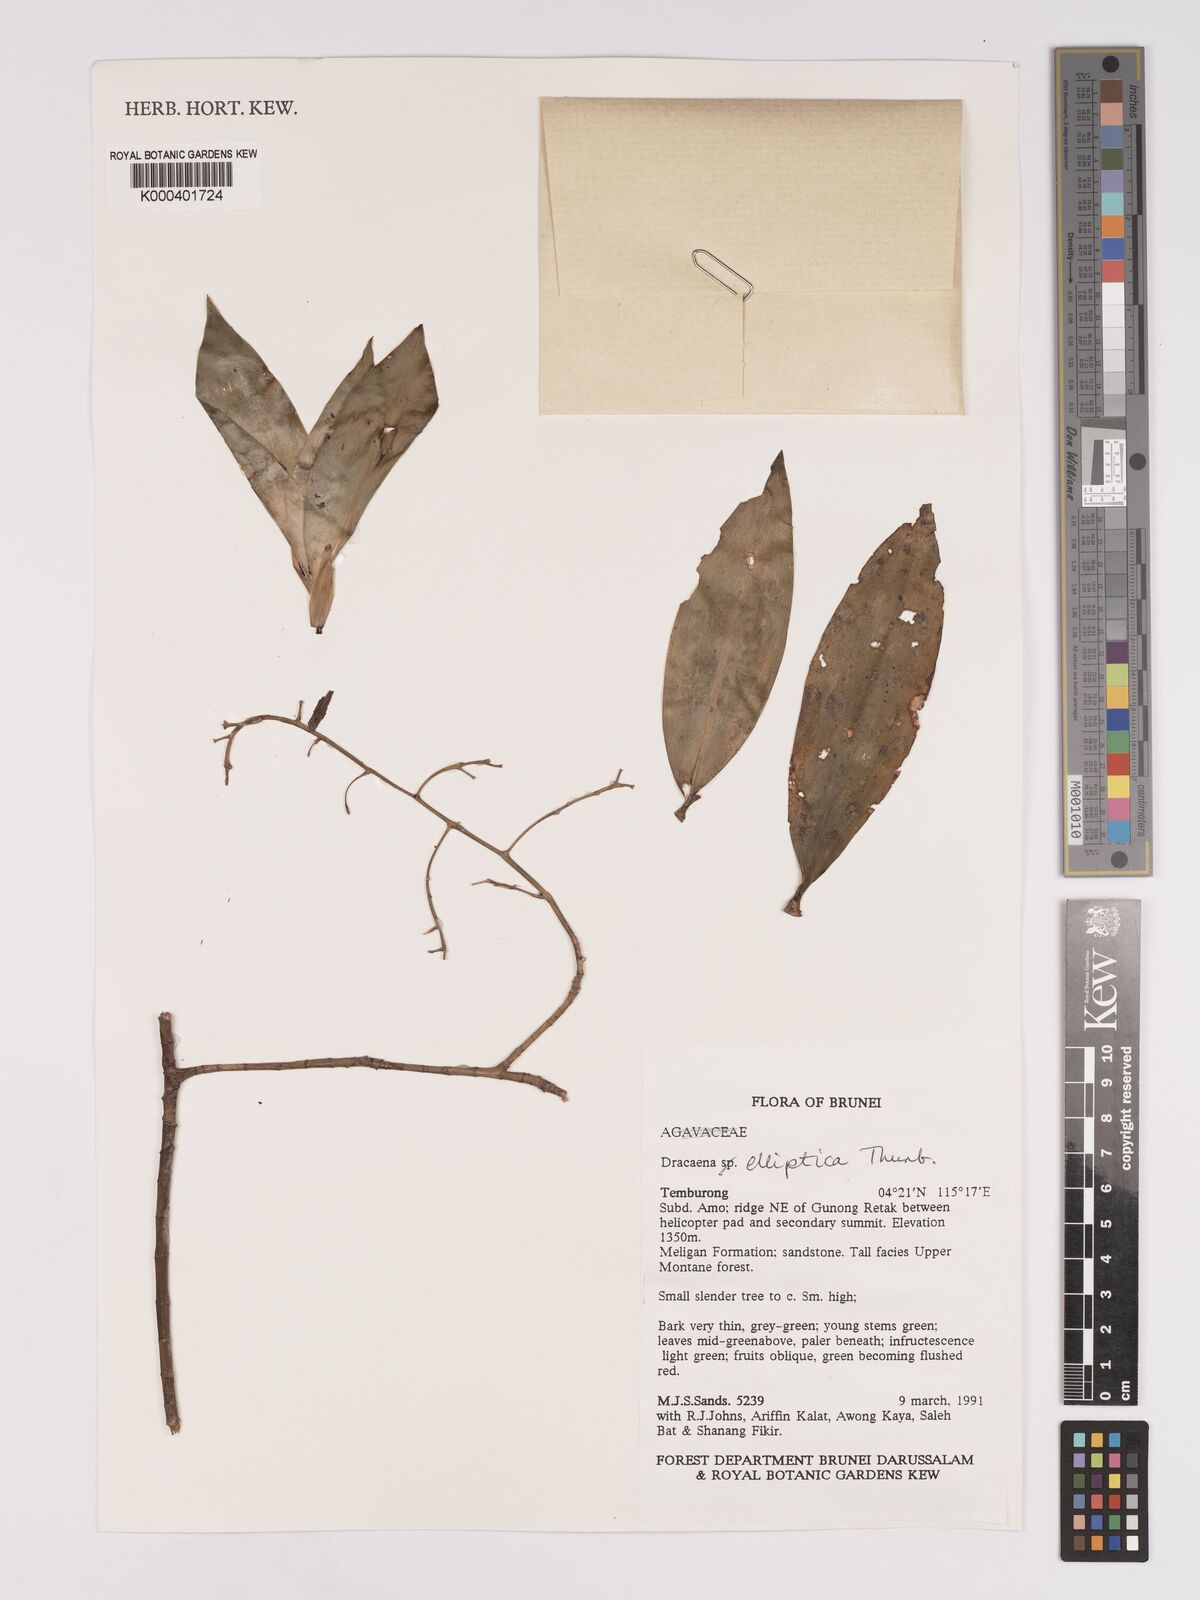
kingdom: Plantae
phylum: Tracheophyta
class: Liliopsida
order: Asparagales
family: Asparagaceae
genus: Dracaena
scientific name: Dracaena elliptica
